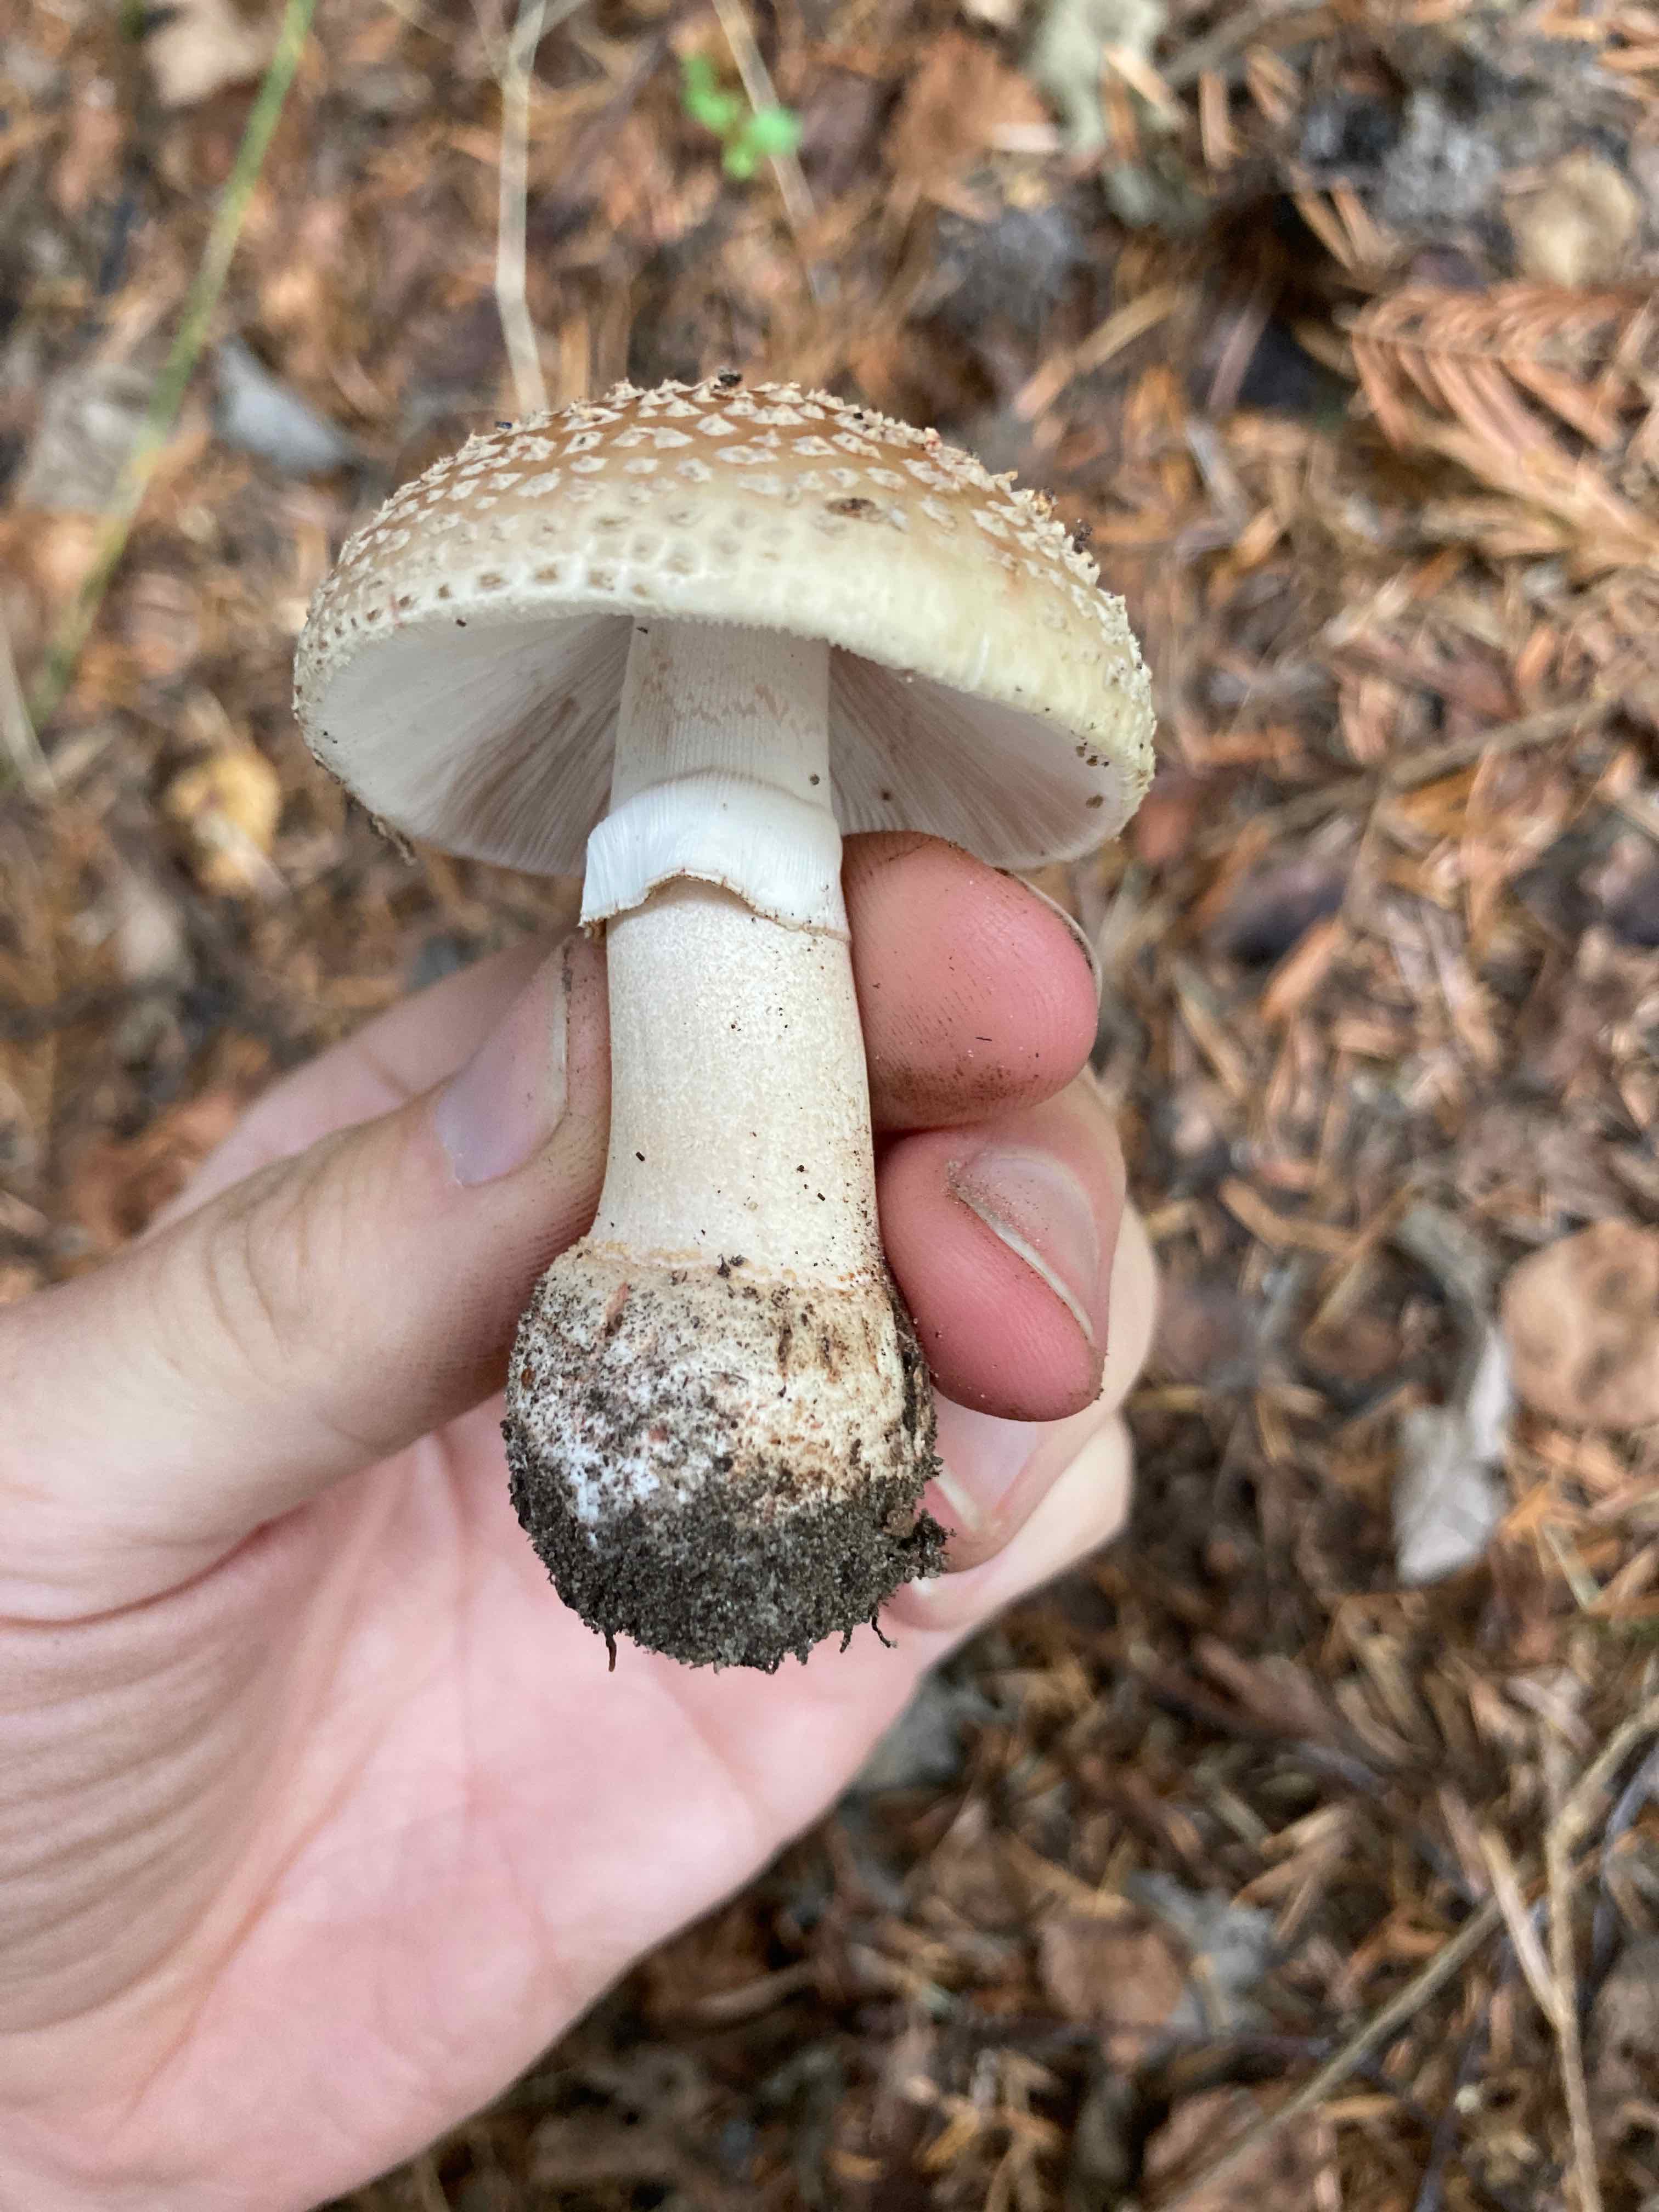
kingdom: Fungi
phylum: Basidiomycota
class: Agaricomycetes
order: Agaricales
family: Amanitaceae
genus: Amanita
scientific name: Amanita rubescens
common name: rødmende fluesvamp
